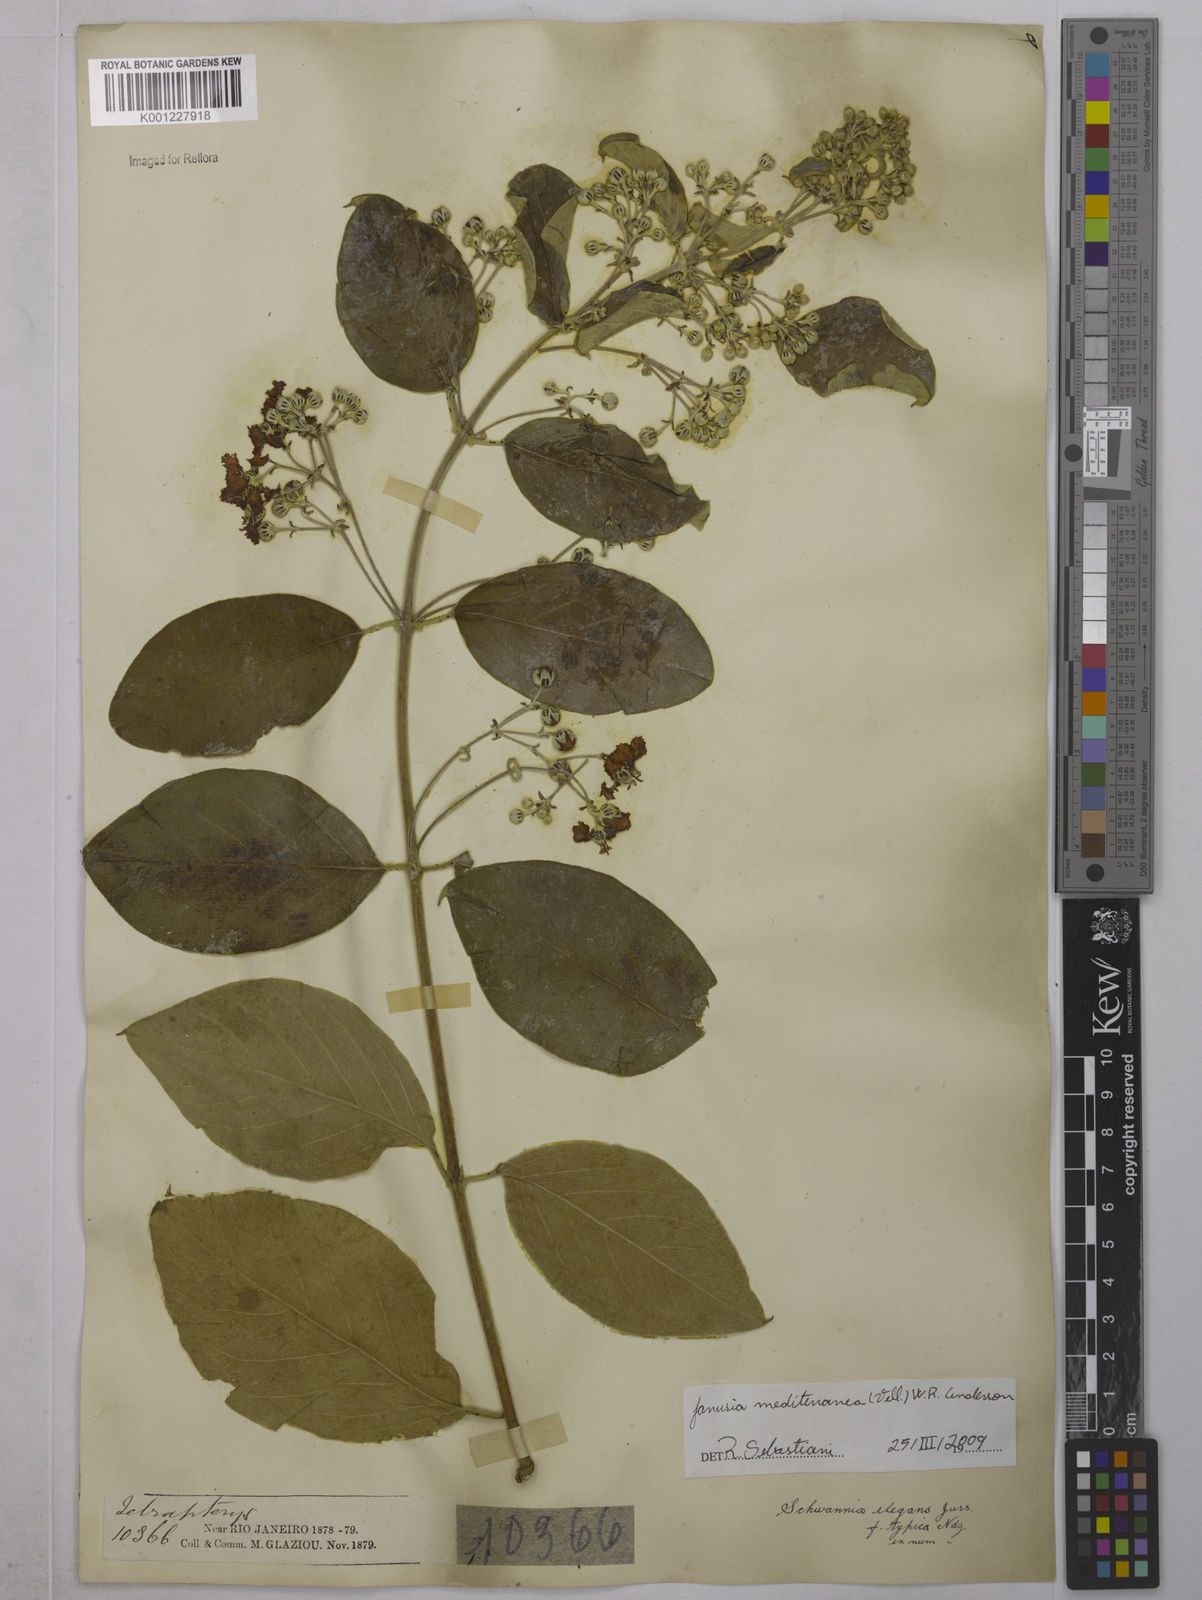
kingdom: Plantae
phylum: Tracheophyta
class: Magnoliopsida
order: Malpighiales
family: Malpighiaceae
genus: Janusia
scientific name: Janusia mediterranea
